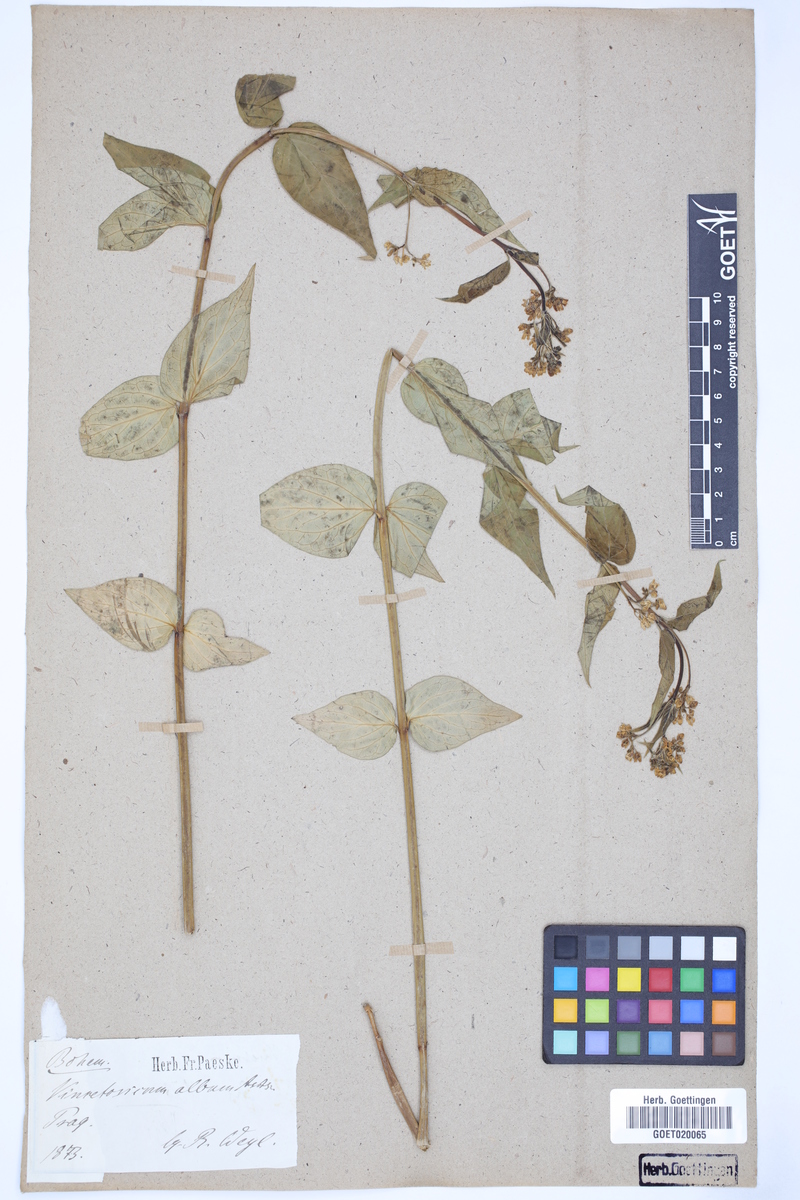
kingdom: Plantae
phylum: Tracheophyta
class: Magnoliopsida
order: Gentianales
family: Apocynaceae
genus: Vincetoxicum
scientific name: Vincetoxicum hirundinaria
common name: White swallowwort
